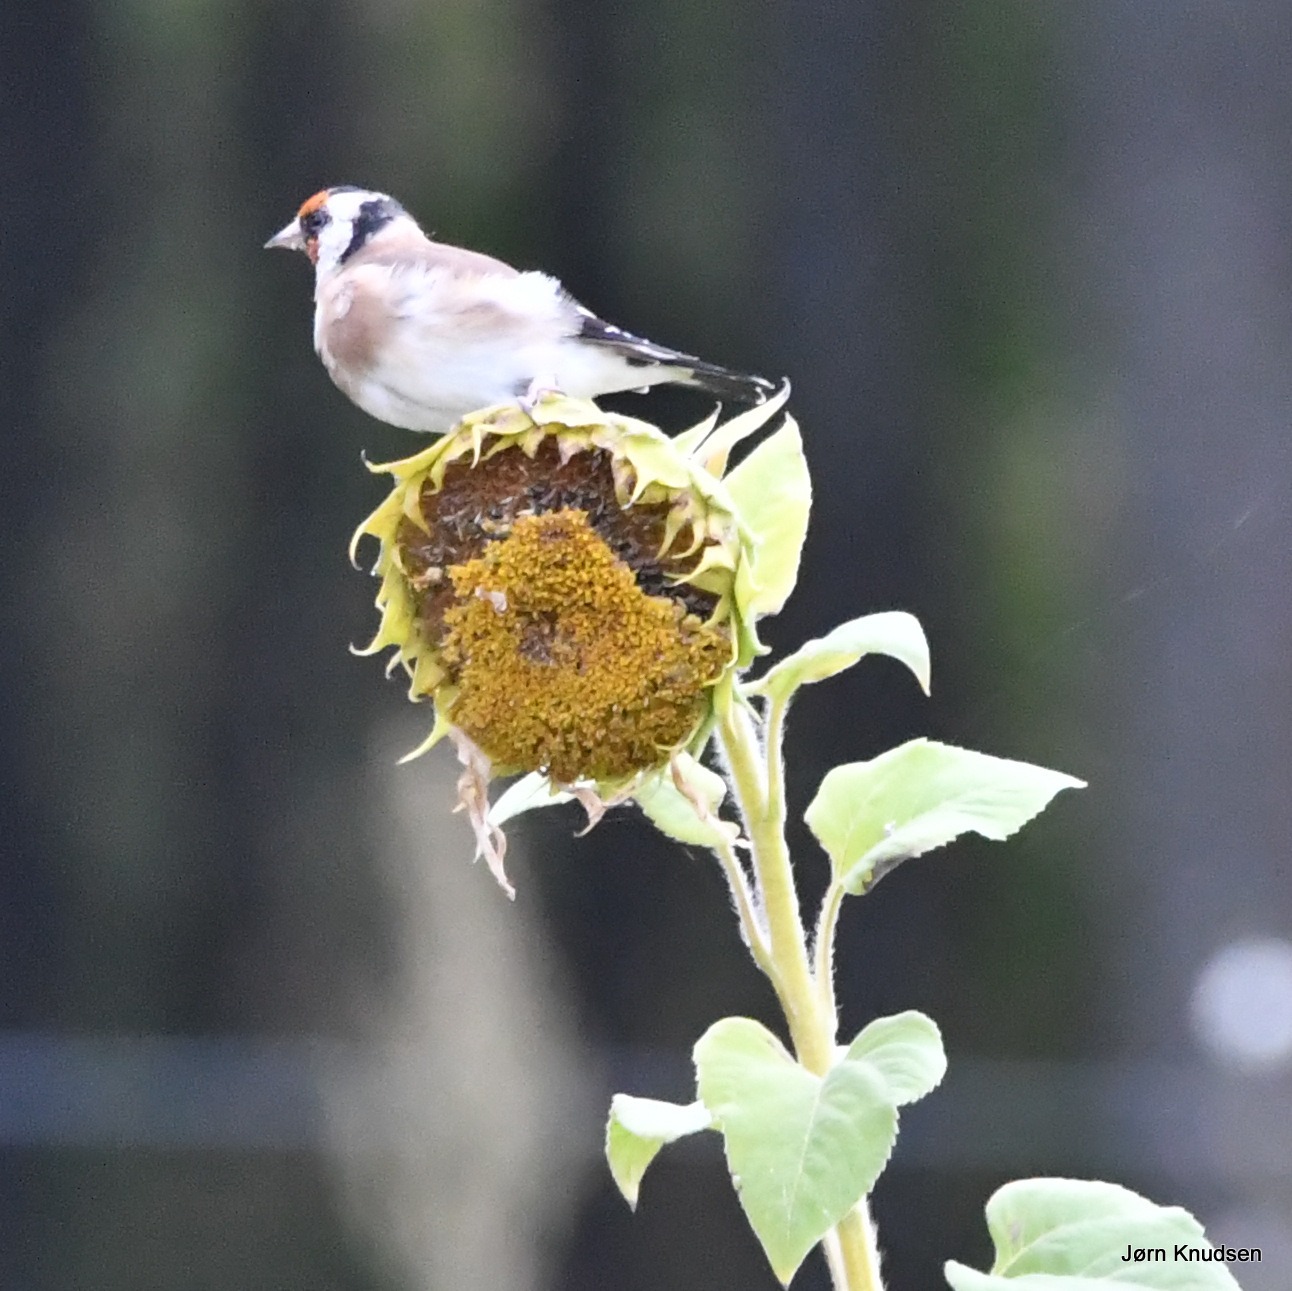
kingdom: Animalia
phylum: Chordata
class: Aves
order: Passeriformes
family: Fringillidae
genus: Carduelis
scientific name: Carduelis carduelis
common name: Stillits
